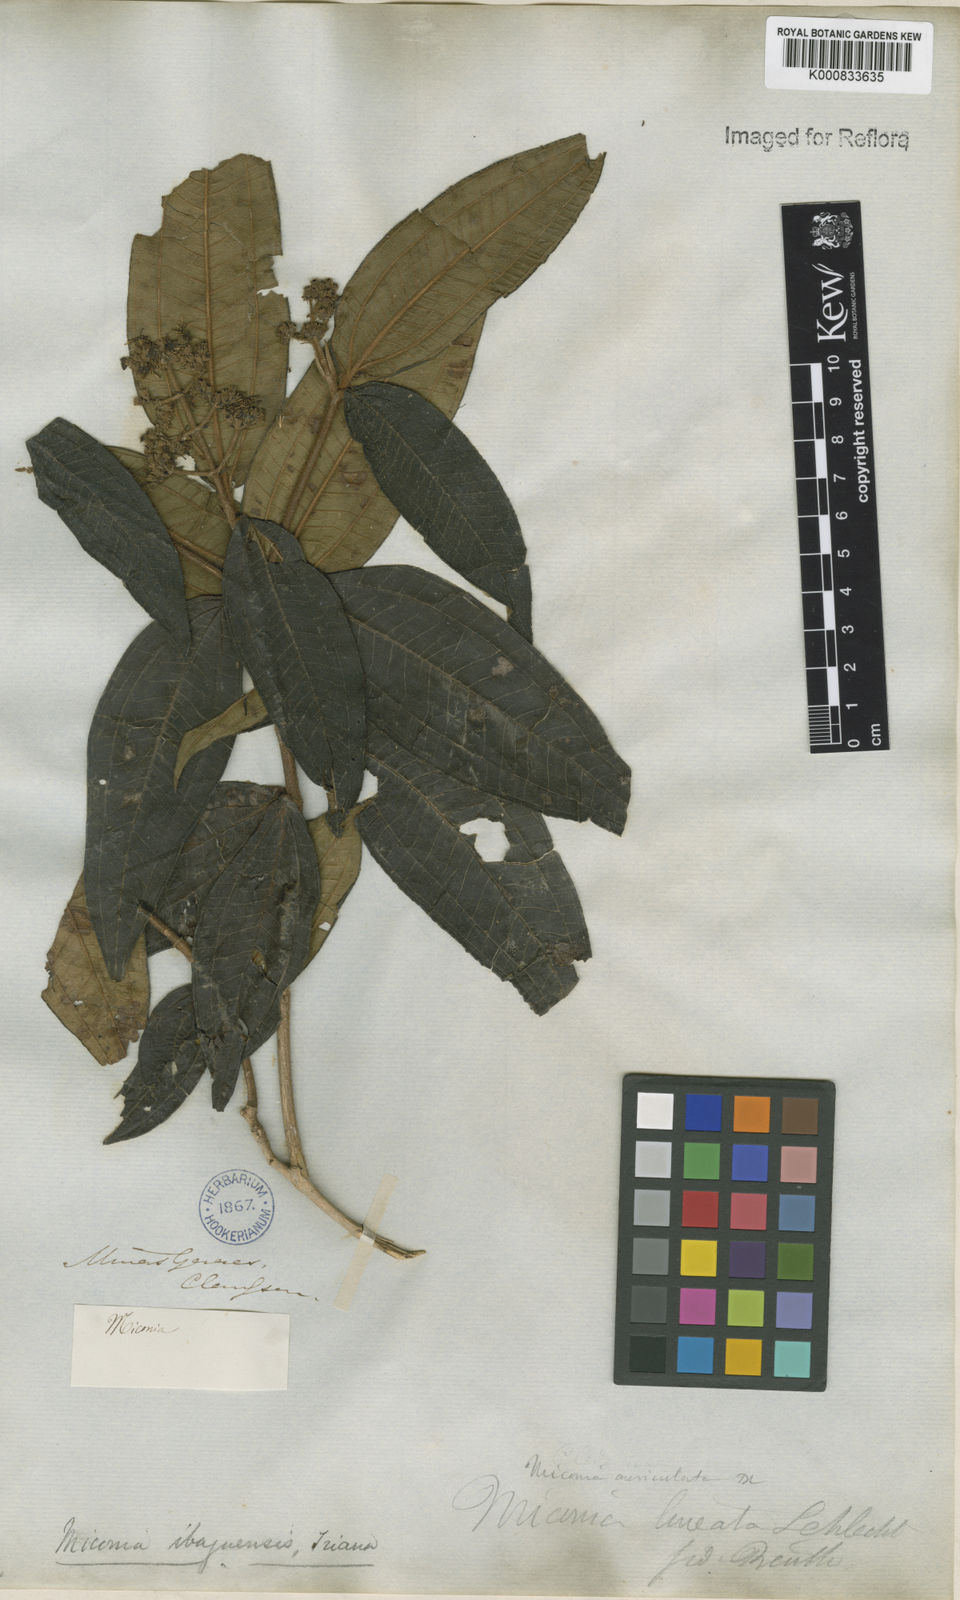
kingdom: Plantae
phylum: Tracheophyta
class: Magnoliopsida
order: Myrtales
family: Melastomataceae
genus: Miconia
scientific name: Miconia ibaguensis
